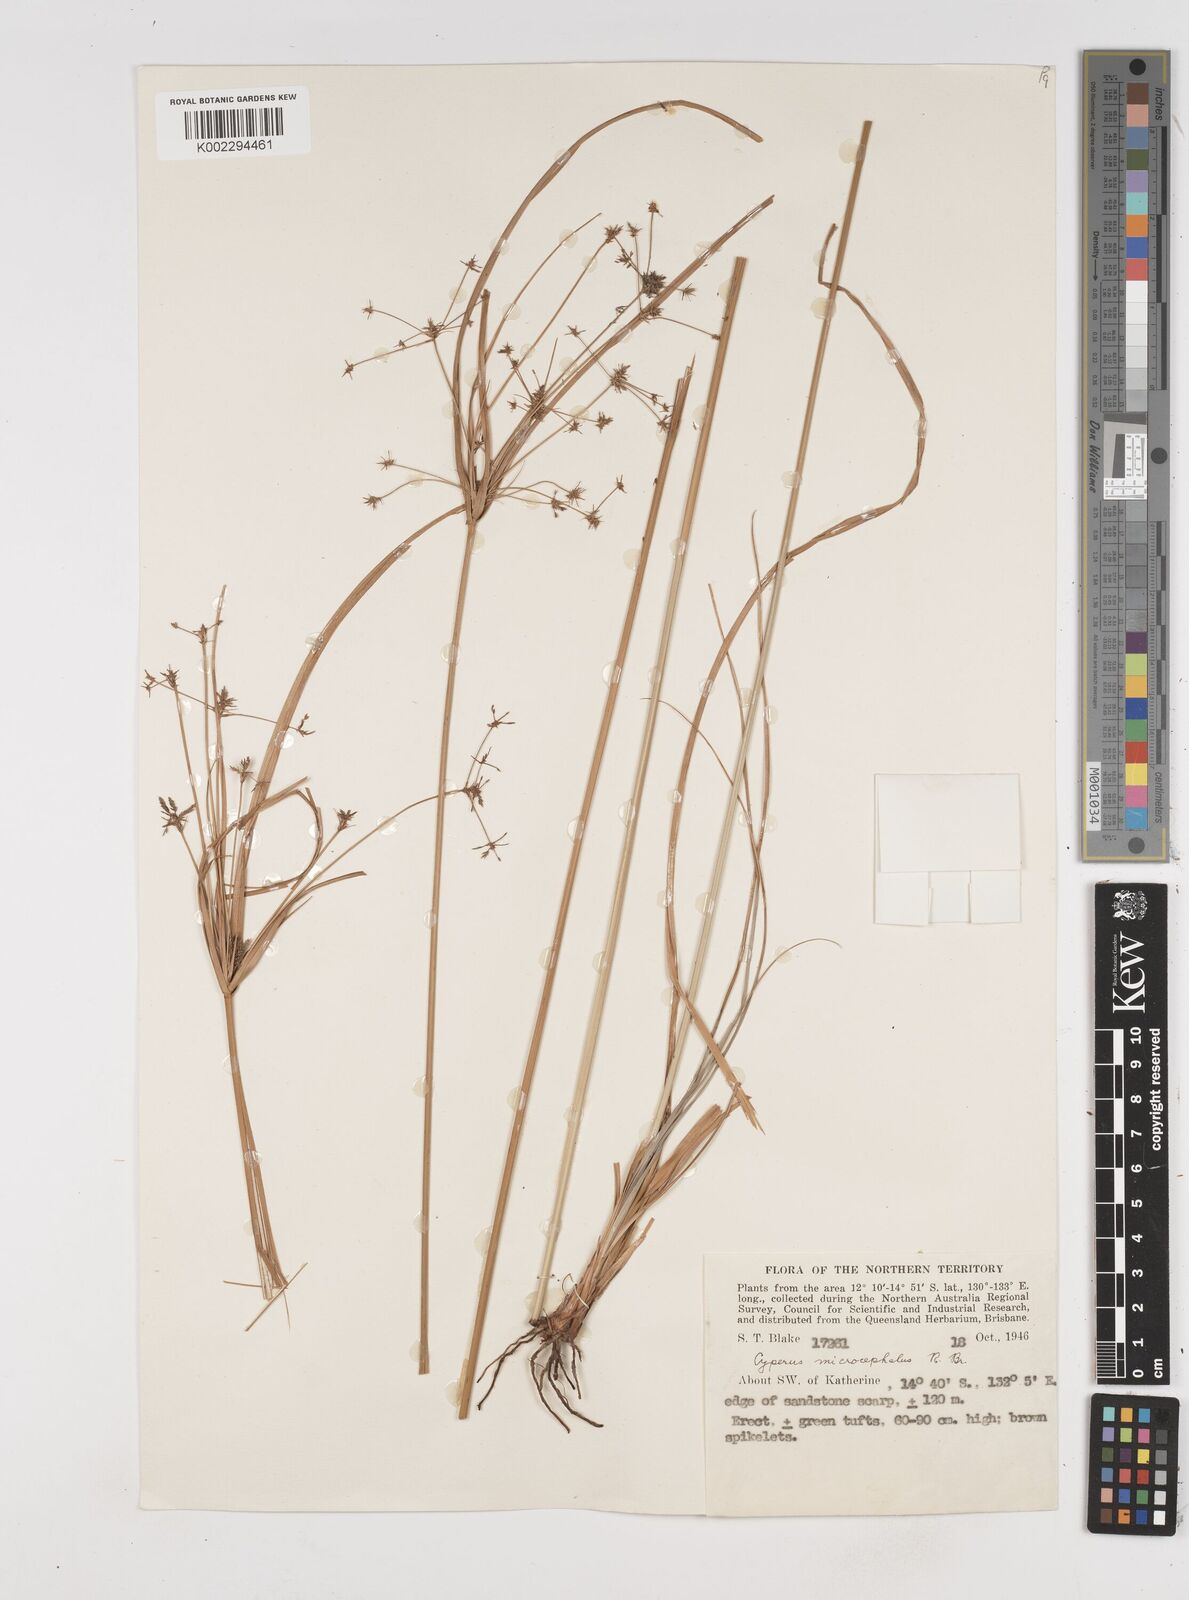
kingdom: Plantae
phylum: Tracheophyta
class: Liliopsida
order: Poales
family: Cyperaceae
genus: Cyperus
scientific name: Cyperus microcephalus
